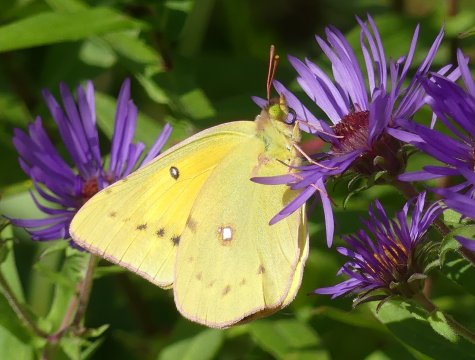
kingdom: Animalia
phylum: Arthropoda
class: Insecta
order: Lepidoptera
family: Pieridae
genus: Colias
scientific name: Colias eurytheme
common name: Orange Sulphur
